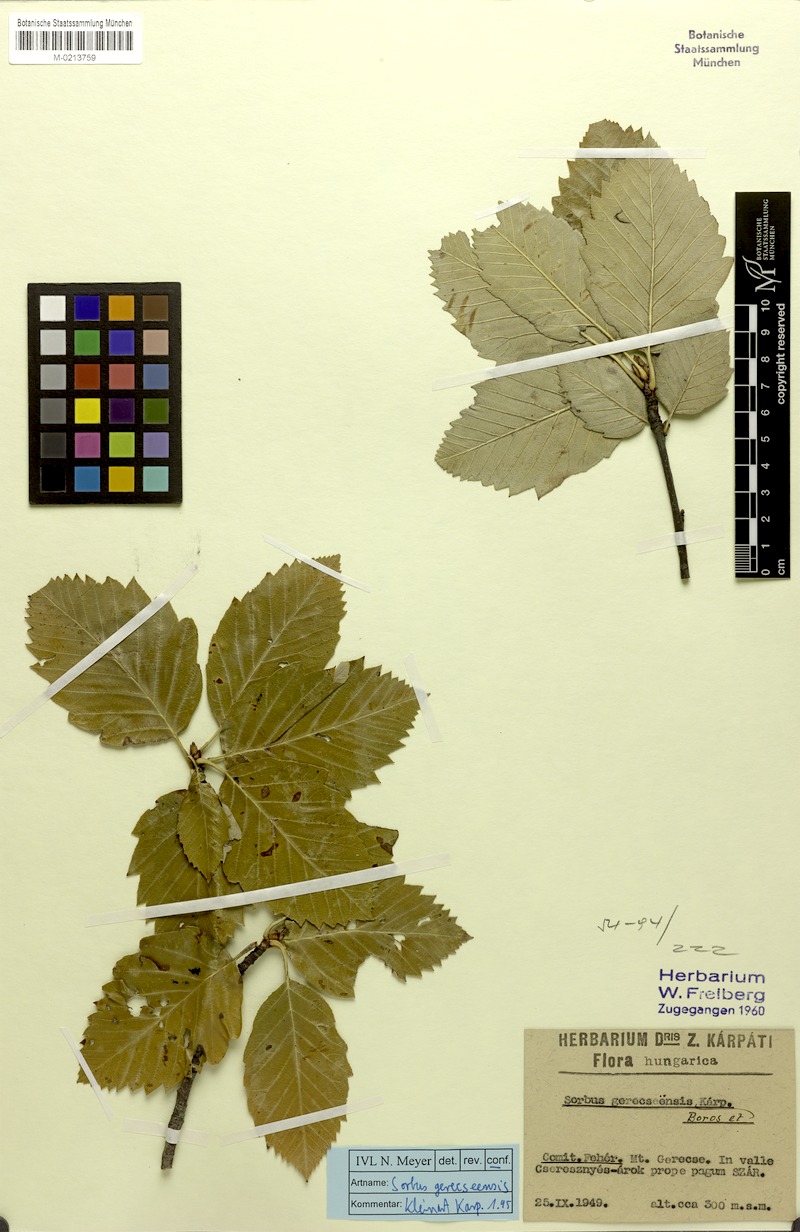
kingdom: Plantae
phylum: Tracheophyta
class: Magnoliopsida
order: Rosales
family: Rosaceae
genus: Karpatiosorbus
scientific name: Karpatiosorbus gerecseensis
